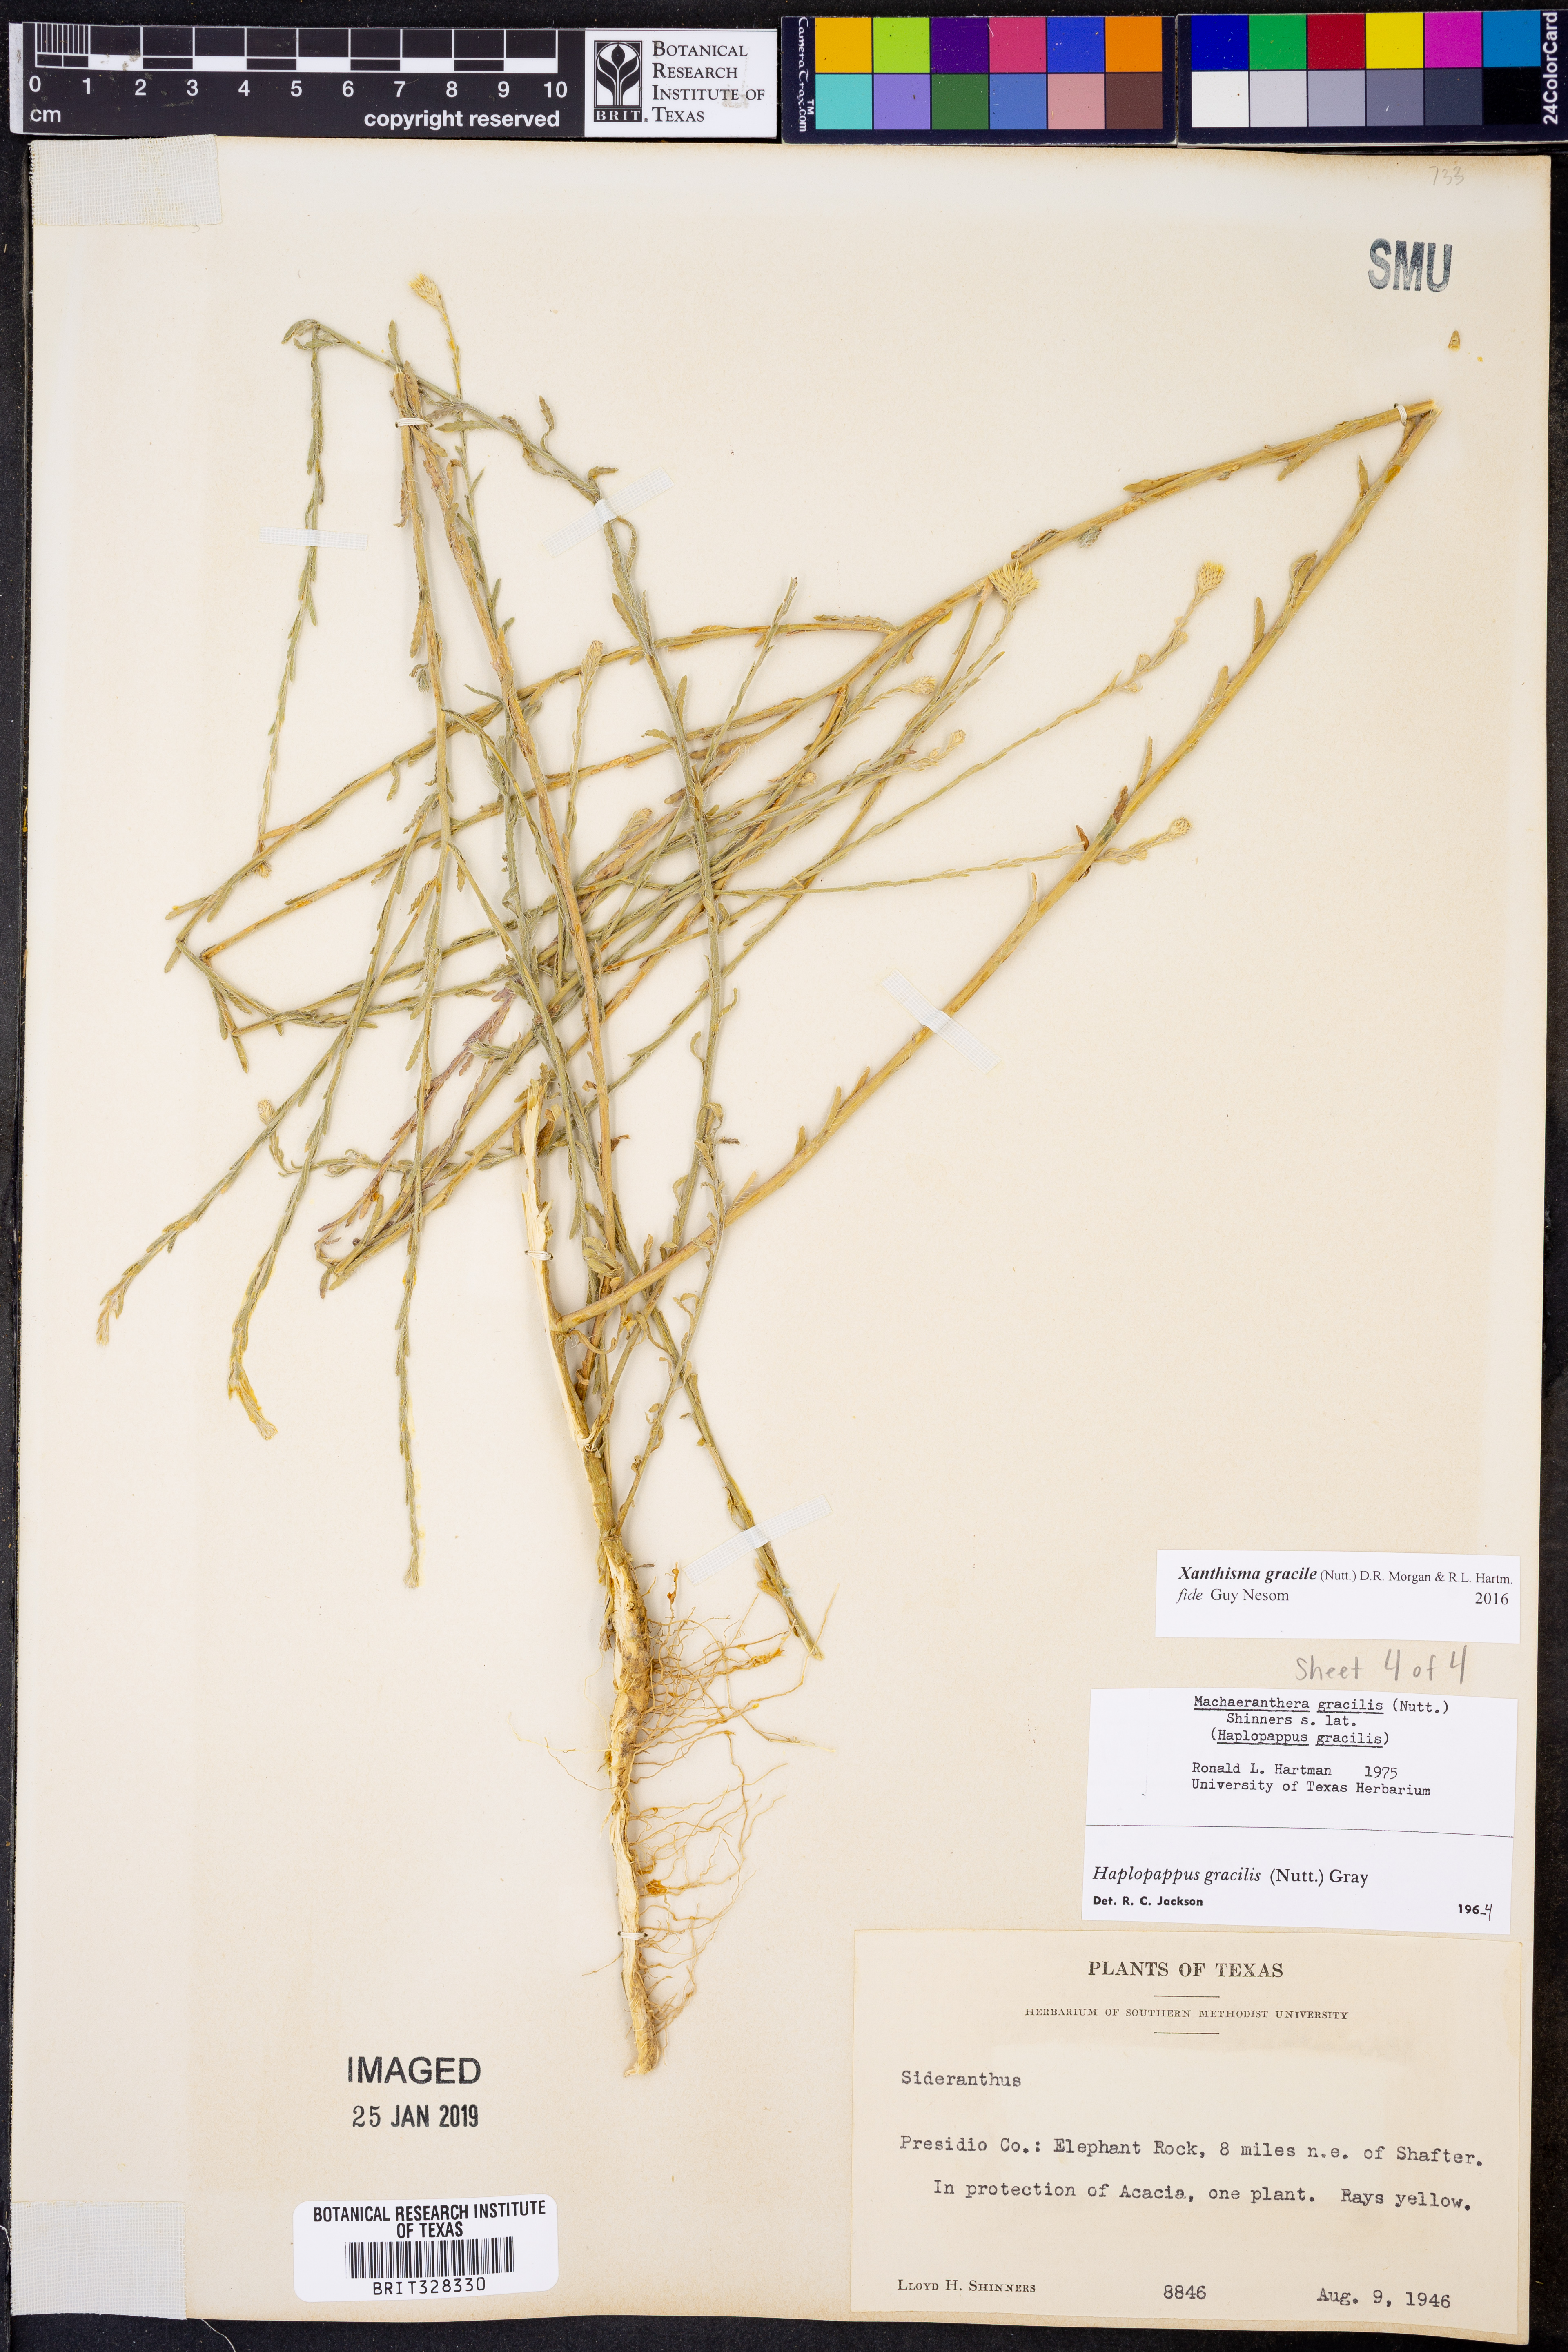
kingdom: Plantae
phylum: Tracheophyta
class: Magnoliopsida
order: Asterales
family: Asteraceae
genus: Xanthisma
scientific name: Xanthisma gracile
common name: Slender goldenweed
